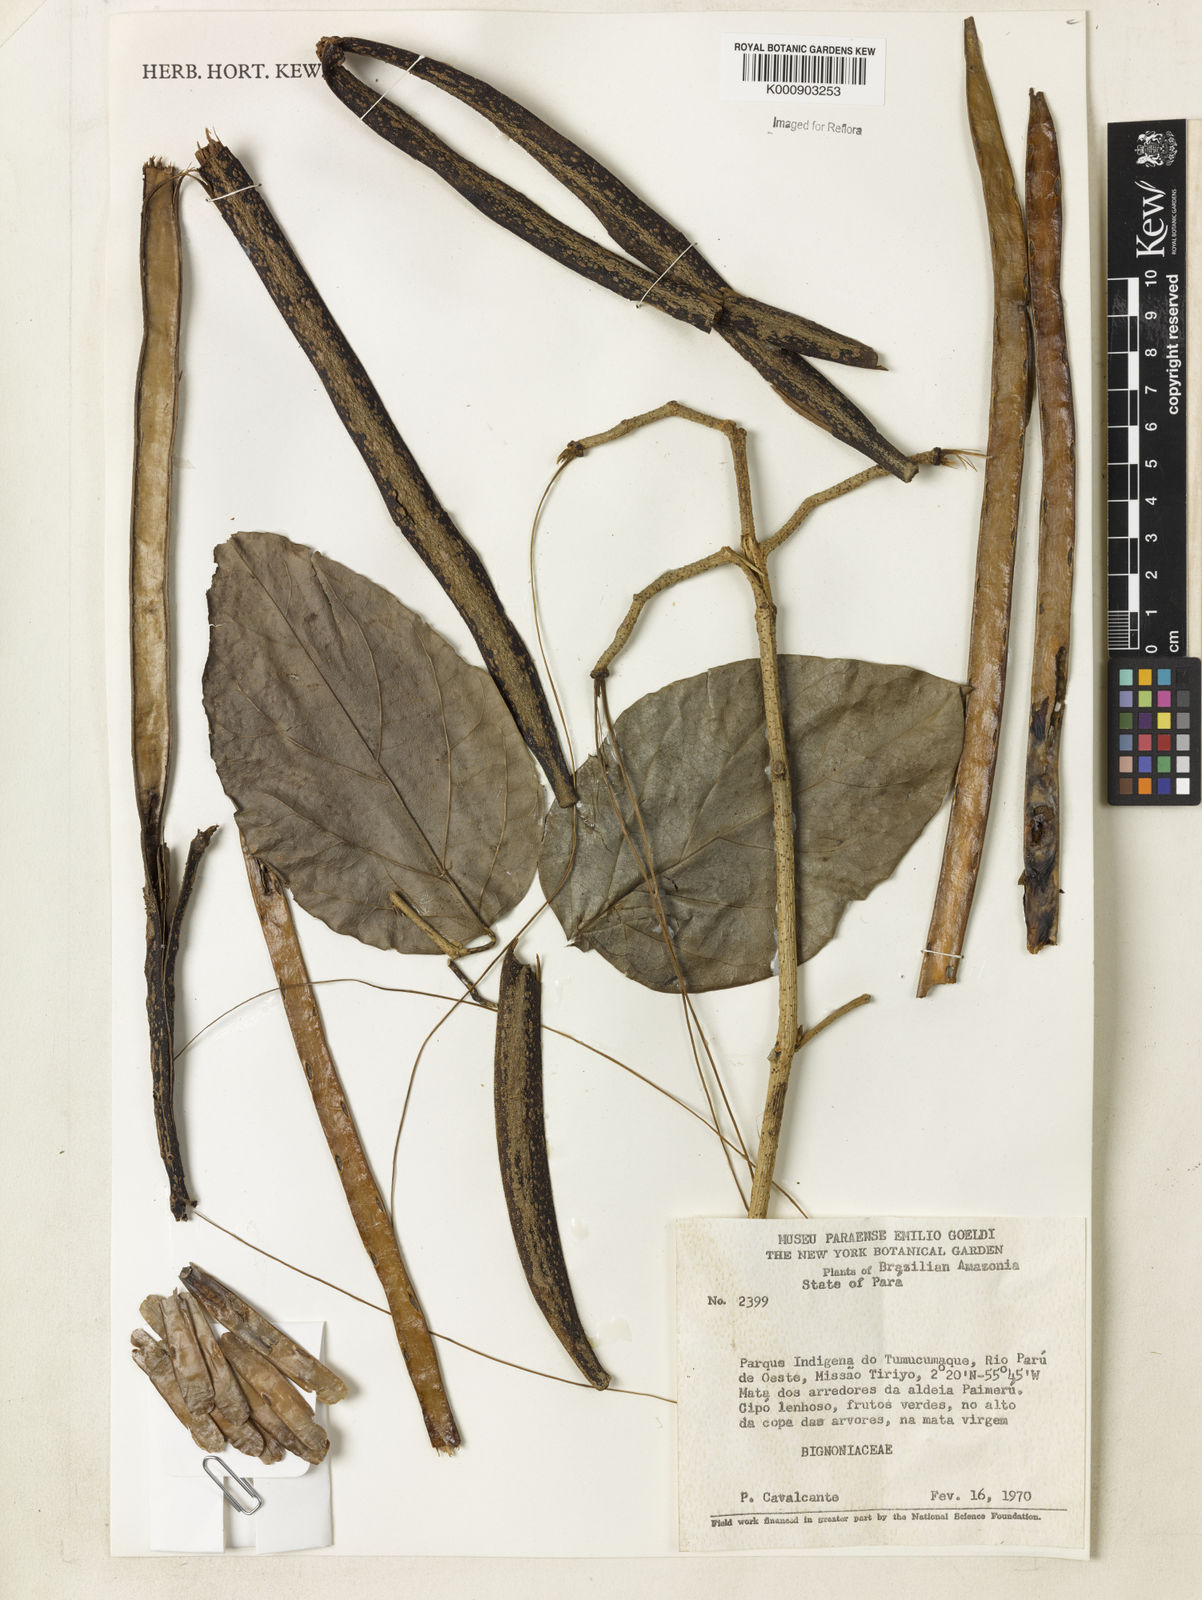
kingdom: Plantae
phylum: Tracheophyta
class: Magnoliopsida
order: Lamiales
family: Bignoniaceae
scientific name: Bignoniaceae
